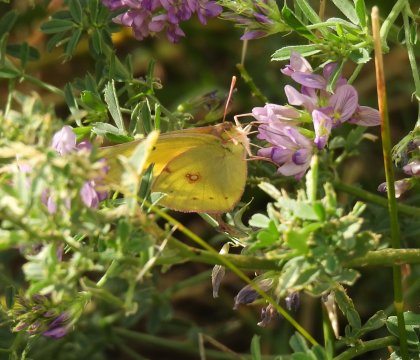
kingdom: Animalia
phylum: Arthropoda
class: Insecta
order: Lepidoptera
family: Pieridae
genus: Colias
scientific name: Colias philodice
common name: Clouded Sulphur
